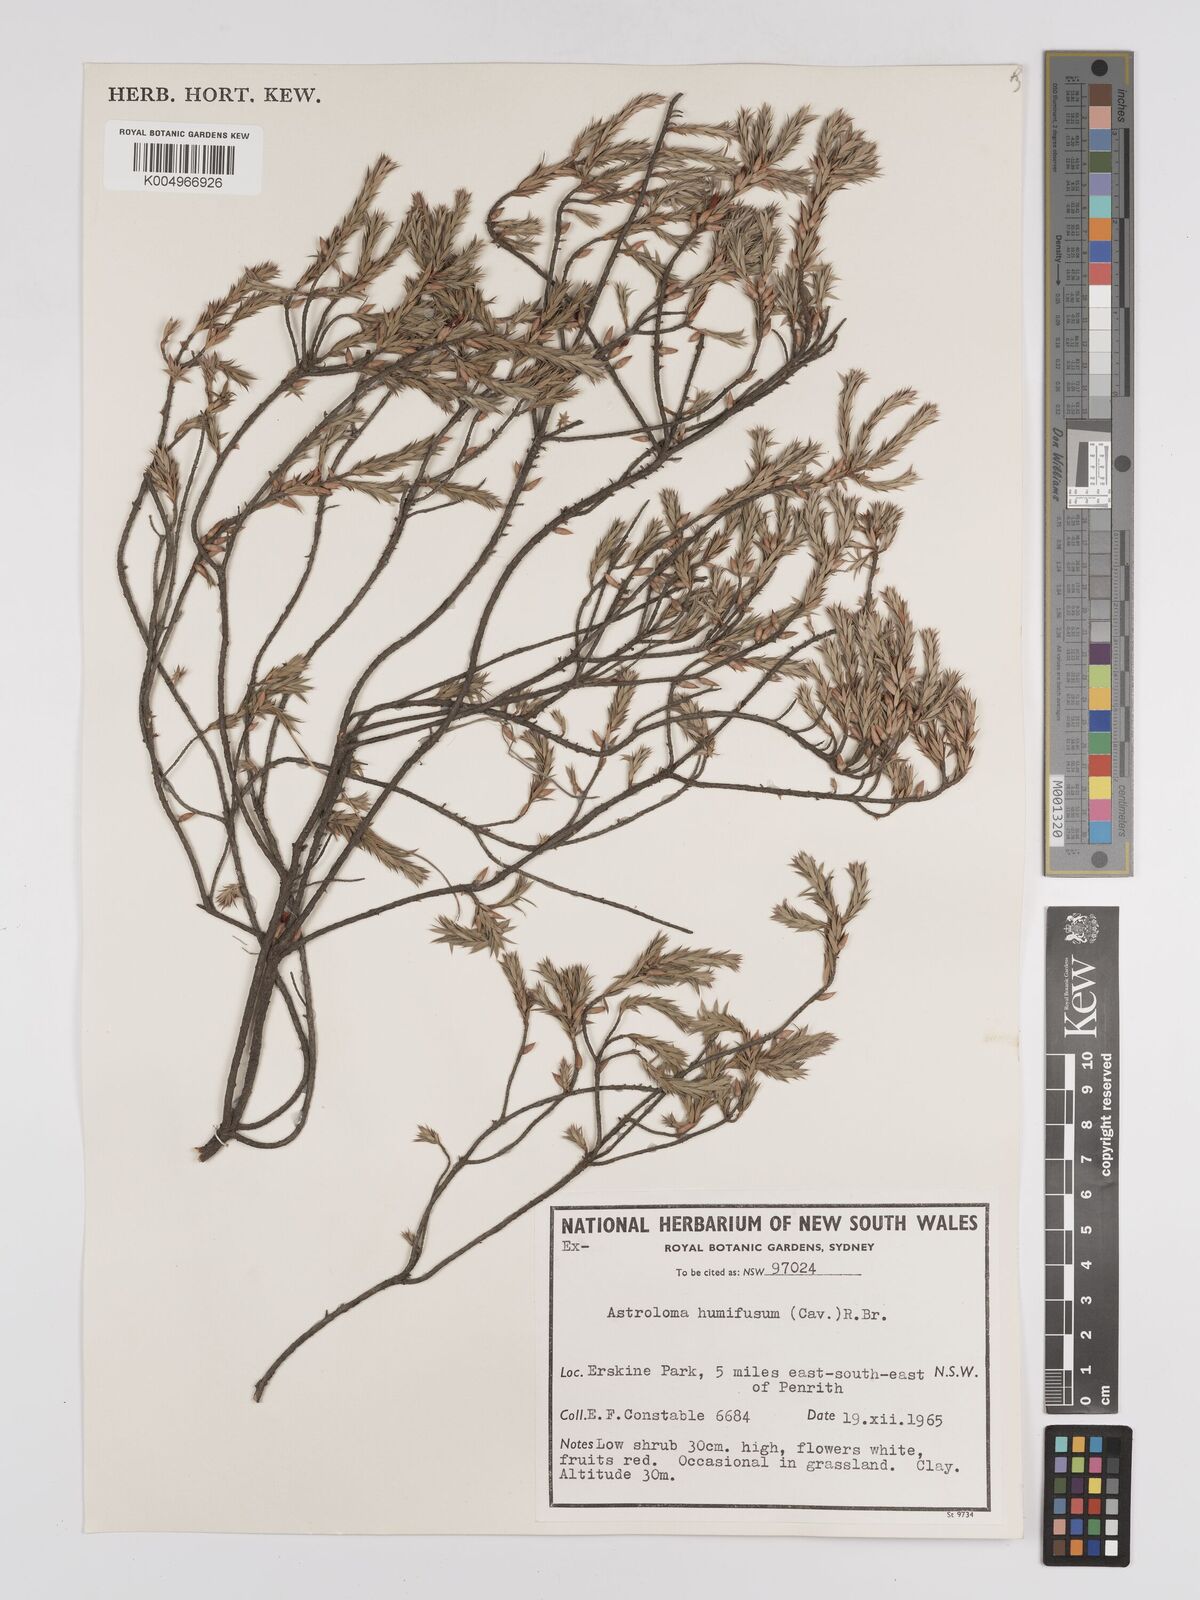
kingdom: Plantae
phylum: Tracheophyta
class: Magnoliopsida
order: Ericales
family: Ericaceae
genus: Styphelia
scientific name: Styphelia humifusa
